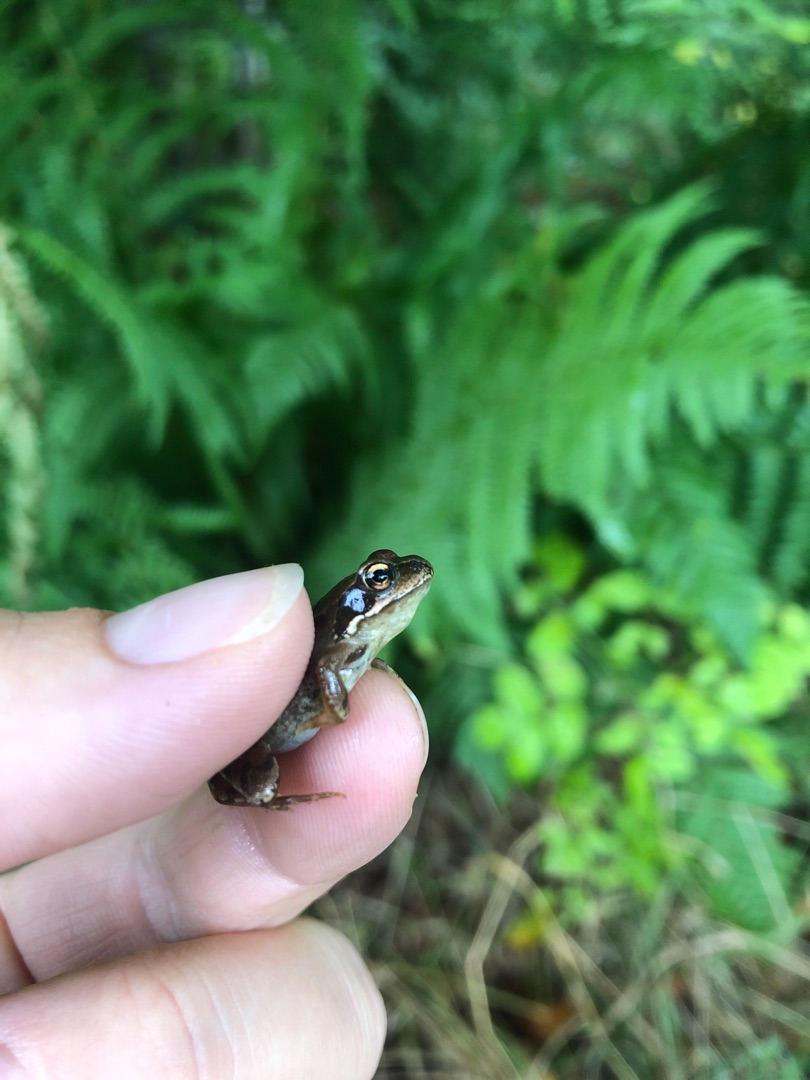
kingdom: Animalia
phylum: Chordata
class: Amphibia
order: Anura
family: Ranidae
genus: Rana
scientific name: Rana temporaria
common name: Butsnudet frø
